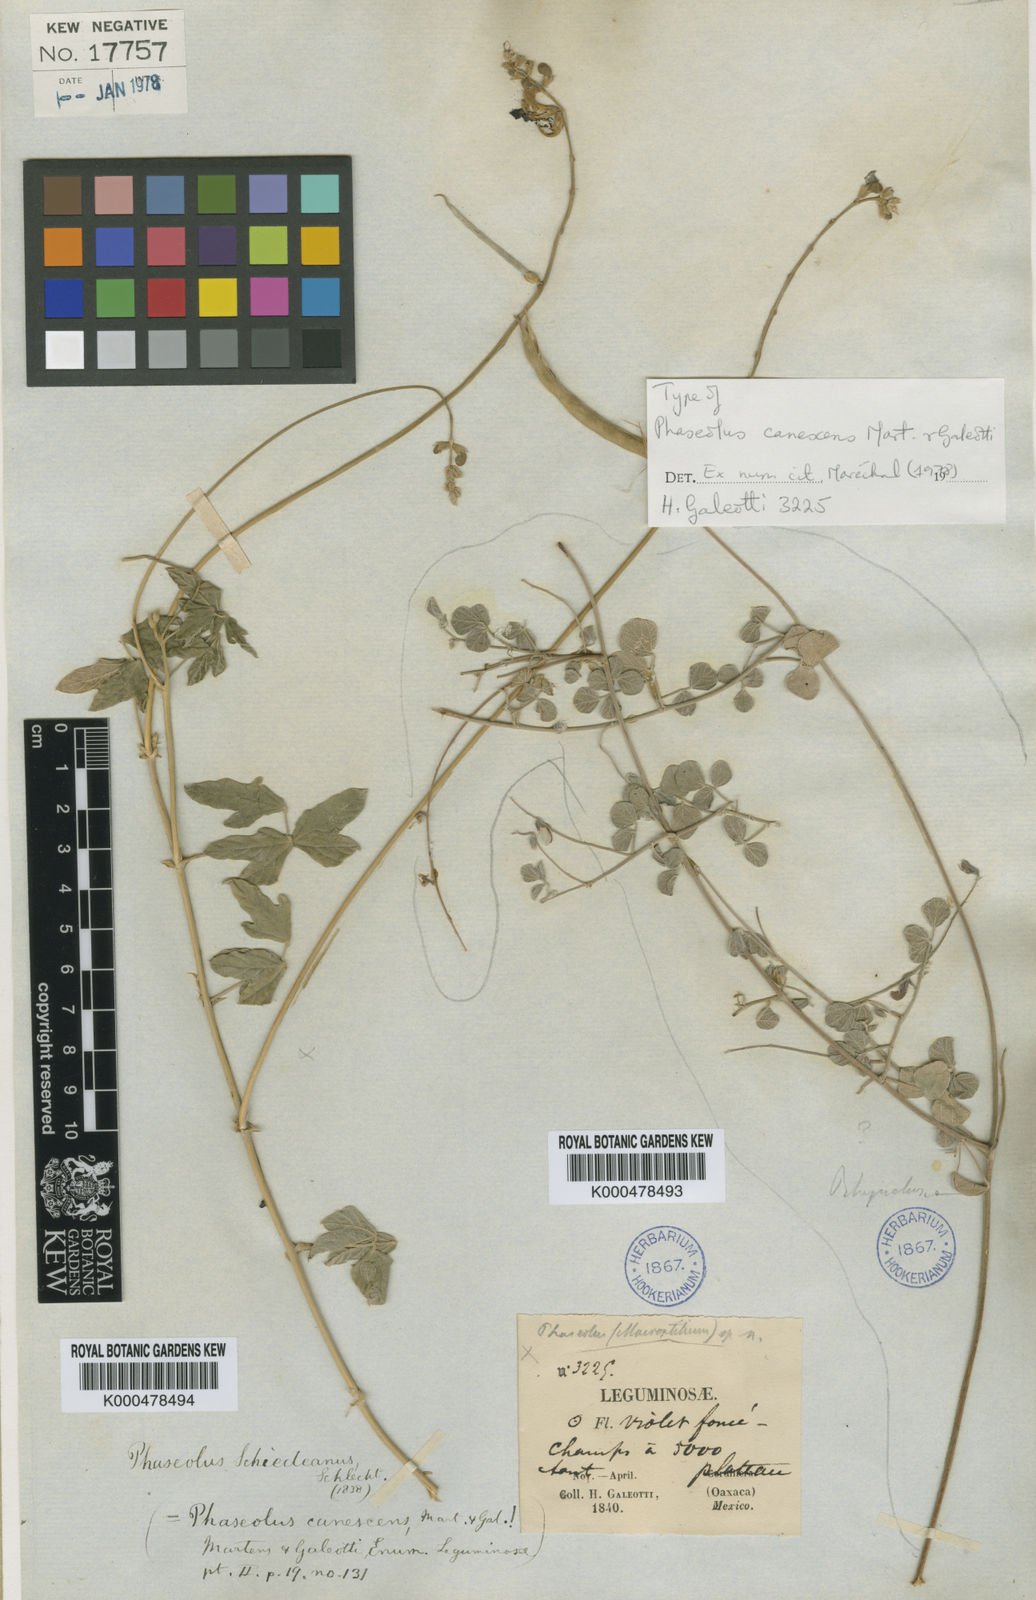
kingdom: Plantae
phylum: Tracheophyta
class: Magnoliopsida
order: Fabales
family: Fabaceae
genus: Macroptilium
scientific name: Macroptilium atropurpureum
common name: Purple bushbean
